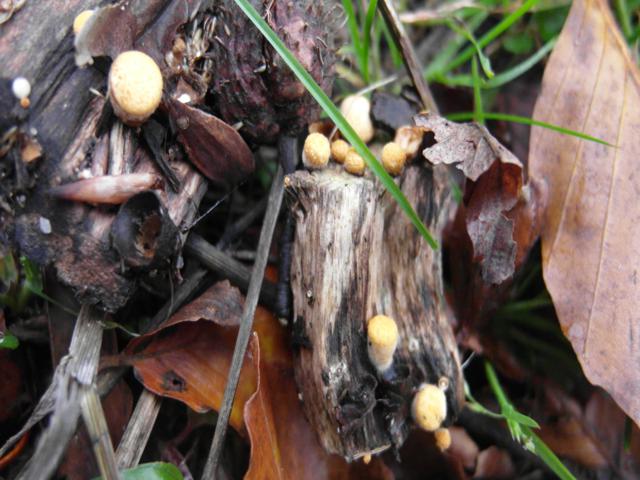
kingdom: Fungi
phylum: Basidiomycota
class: Agaricomycetes
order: Agaricales
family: Nidulariaceae
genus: Crucibulum
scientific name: Crucibulum crucibuliforme
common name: krukkesvamp
